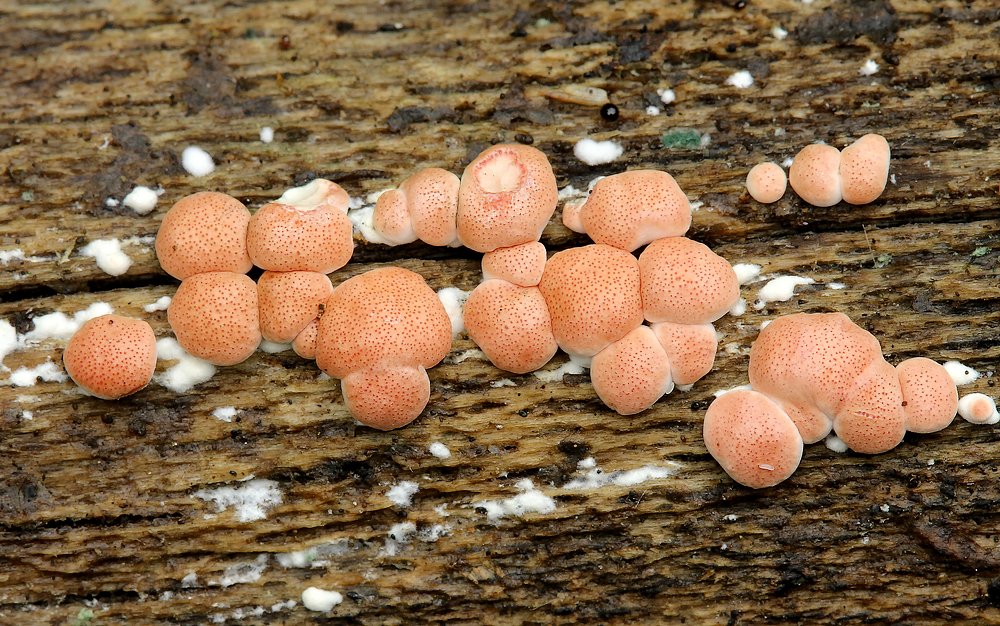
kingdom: Fungi
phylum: Ascomycota
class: Sordariomycetes
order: Hypocreales
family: Hypocreaceae
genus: Trichoderma
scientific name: Trichoderma europaeum
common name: rosabrun kødkerne
